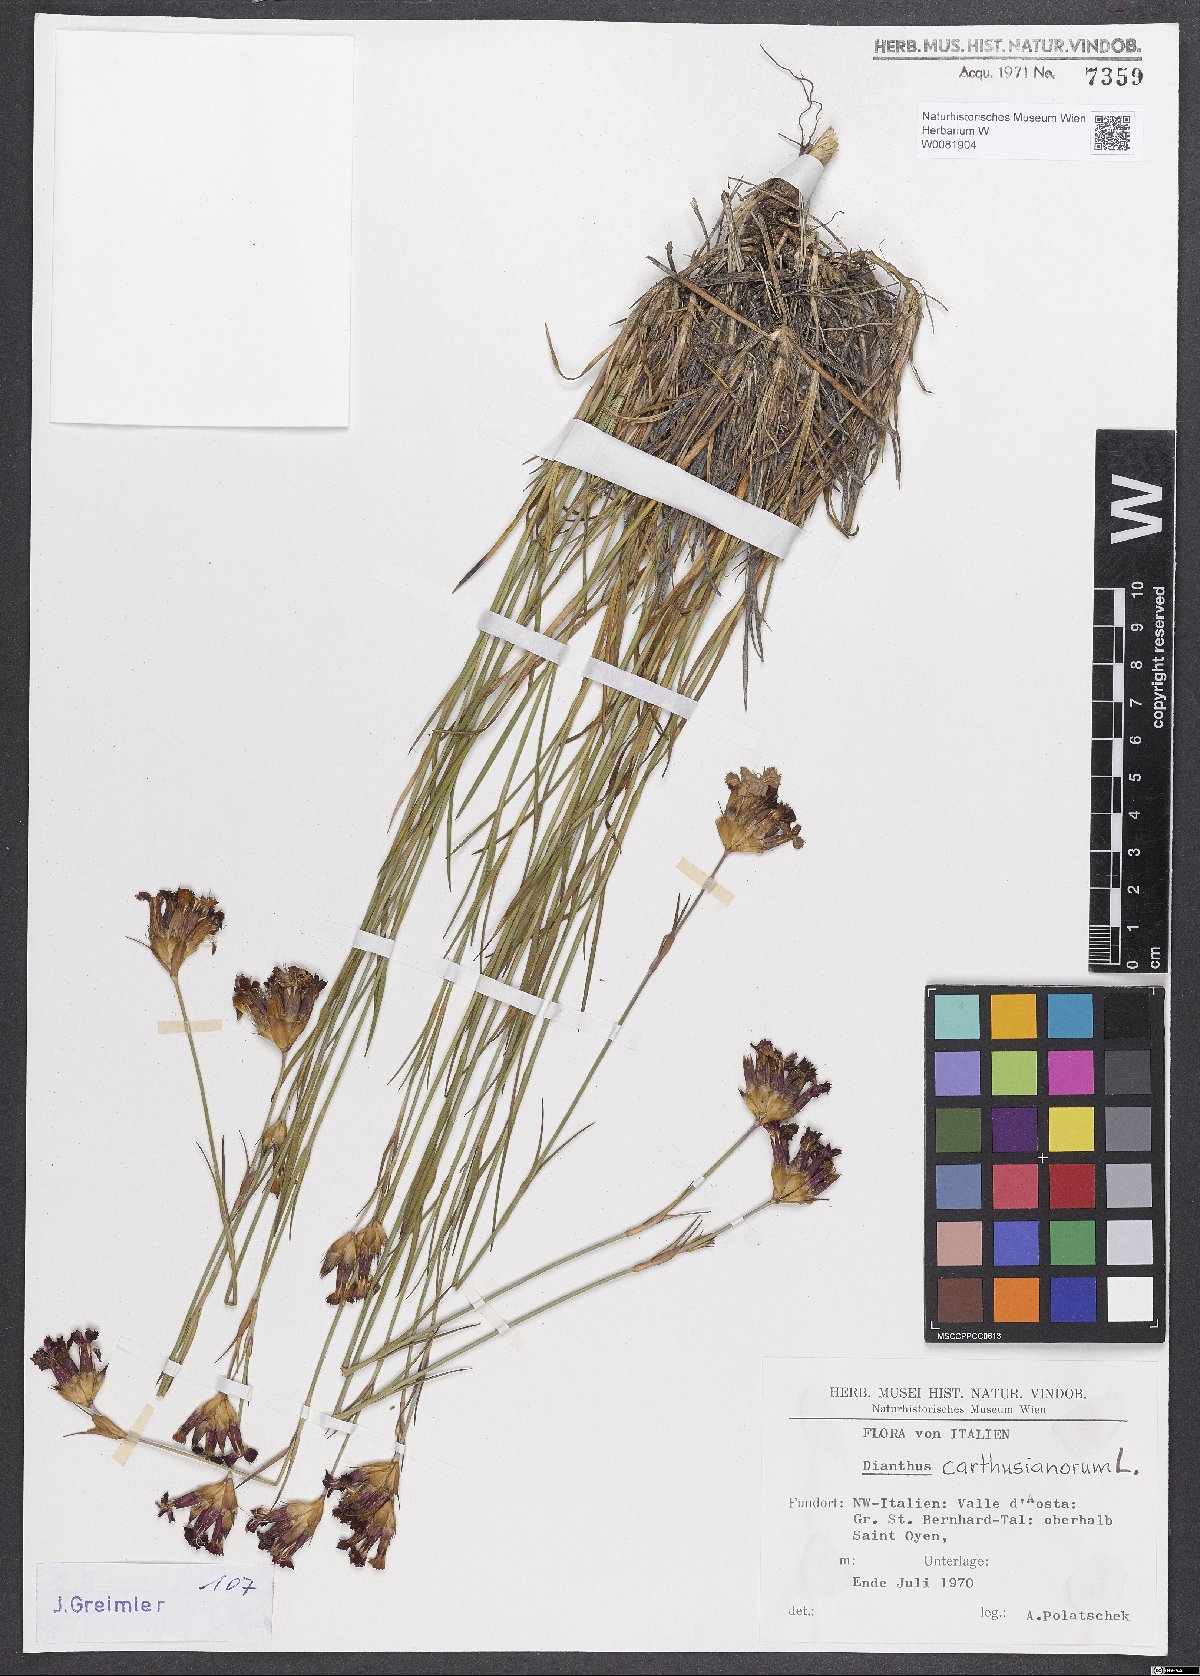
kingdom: Plantae
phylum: Tracheophyta
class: Magnoliopsida
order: Caryophyllales
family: Caryophyllaceae
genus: Dianthus
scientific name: Dianthus carthusianorum
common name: Carthusian pink
